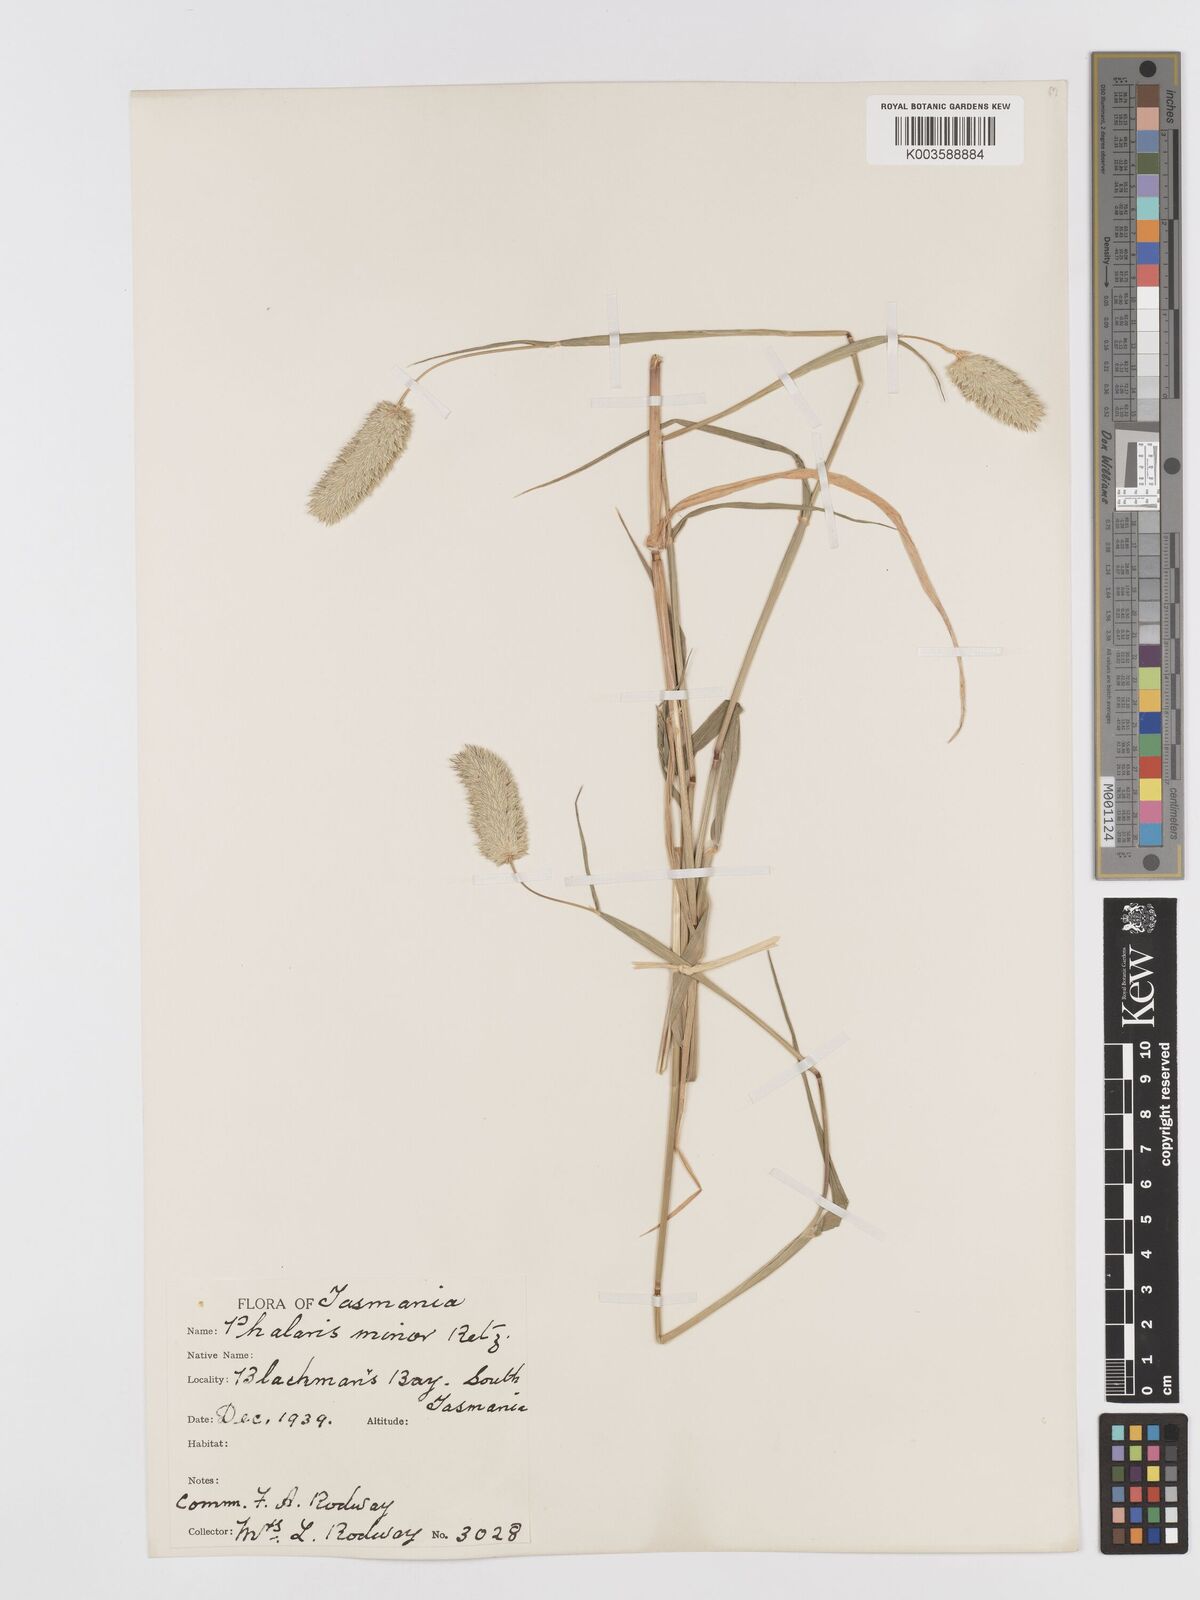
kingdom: Plantae
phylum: Tracheophyta
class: Liliopsida
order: Poales
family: Poaceae
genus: Phalaris
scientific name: Phalaris minor
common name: Littleseed canarygrass
